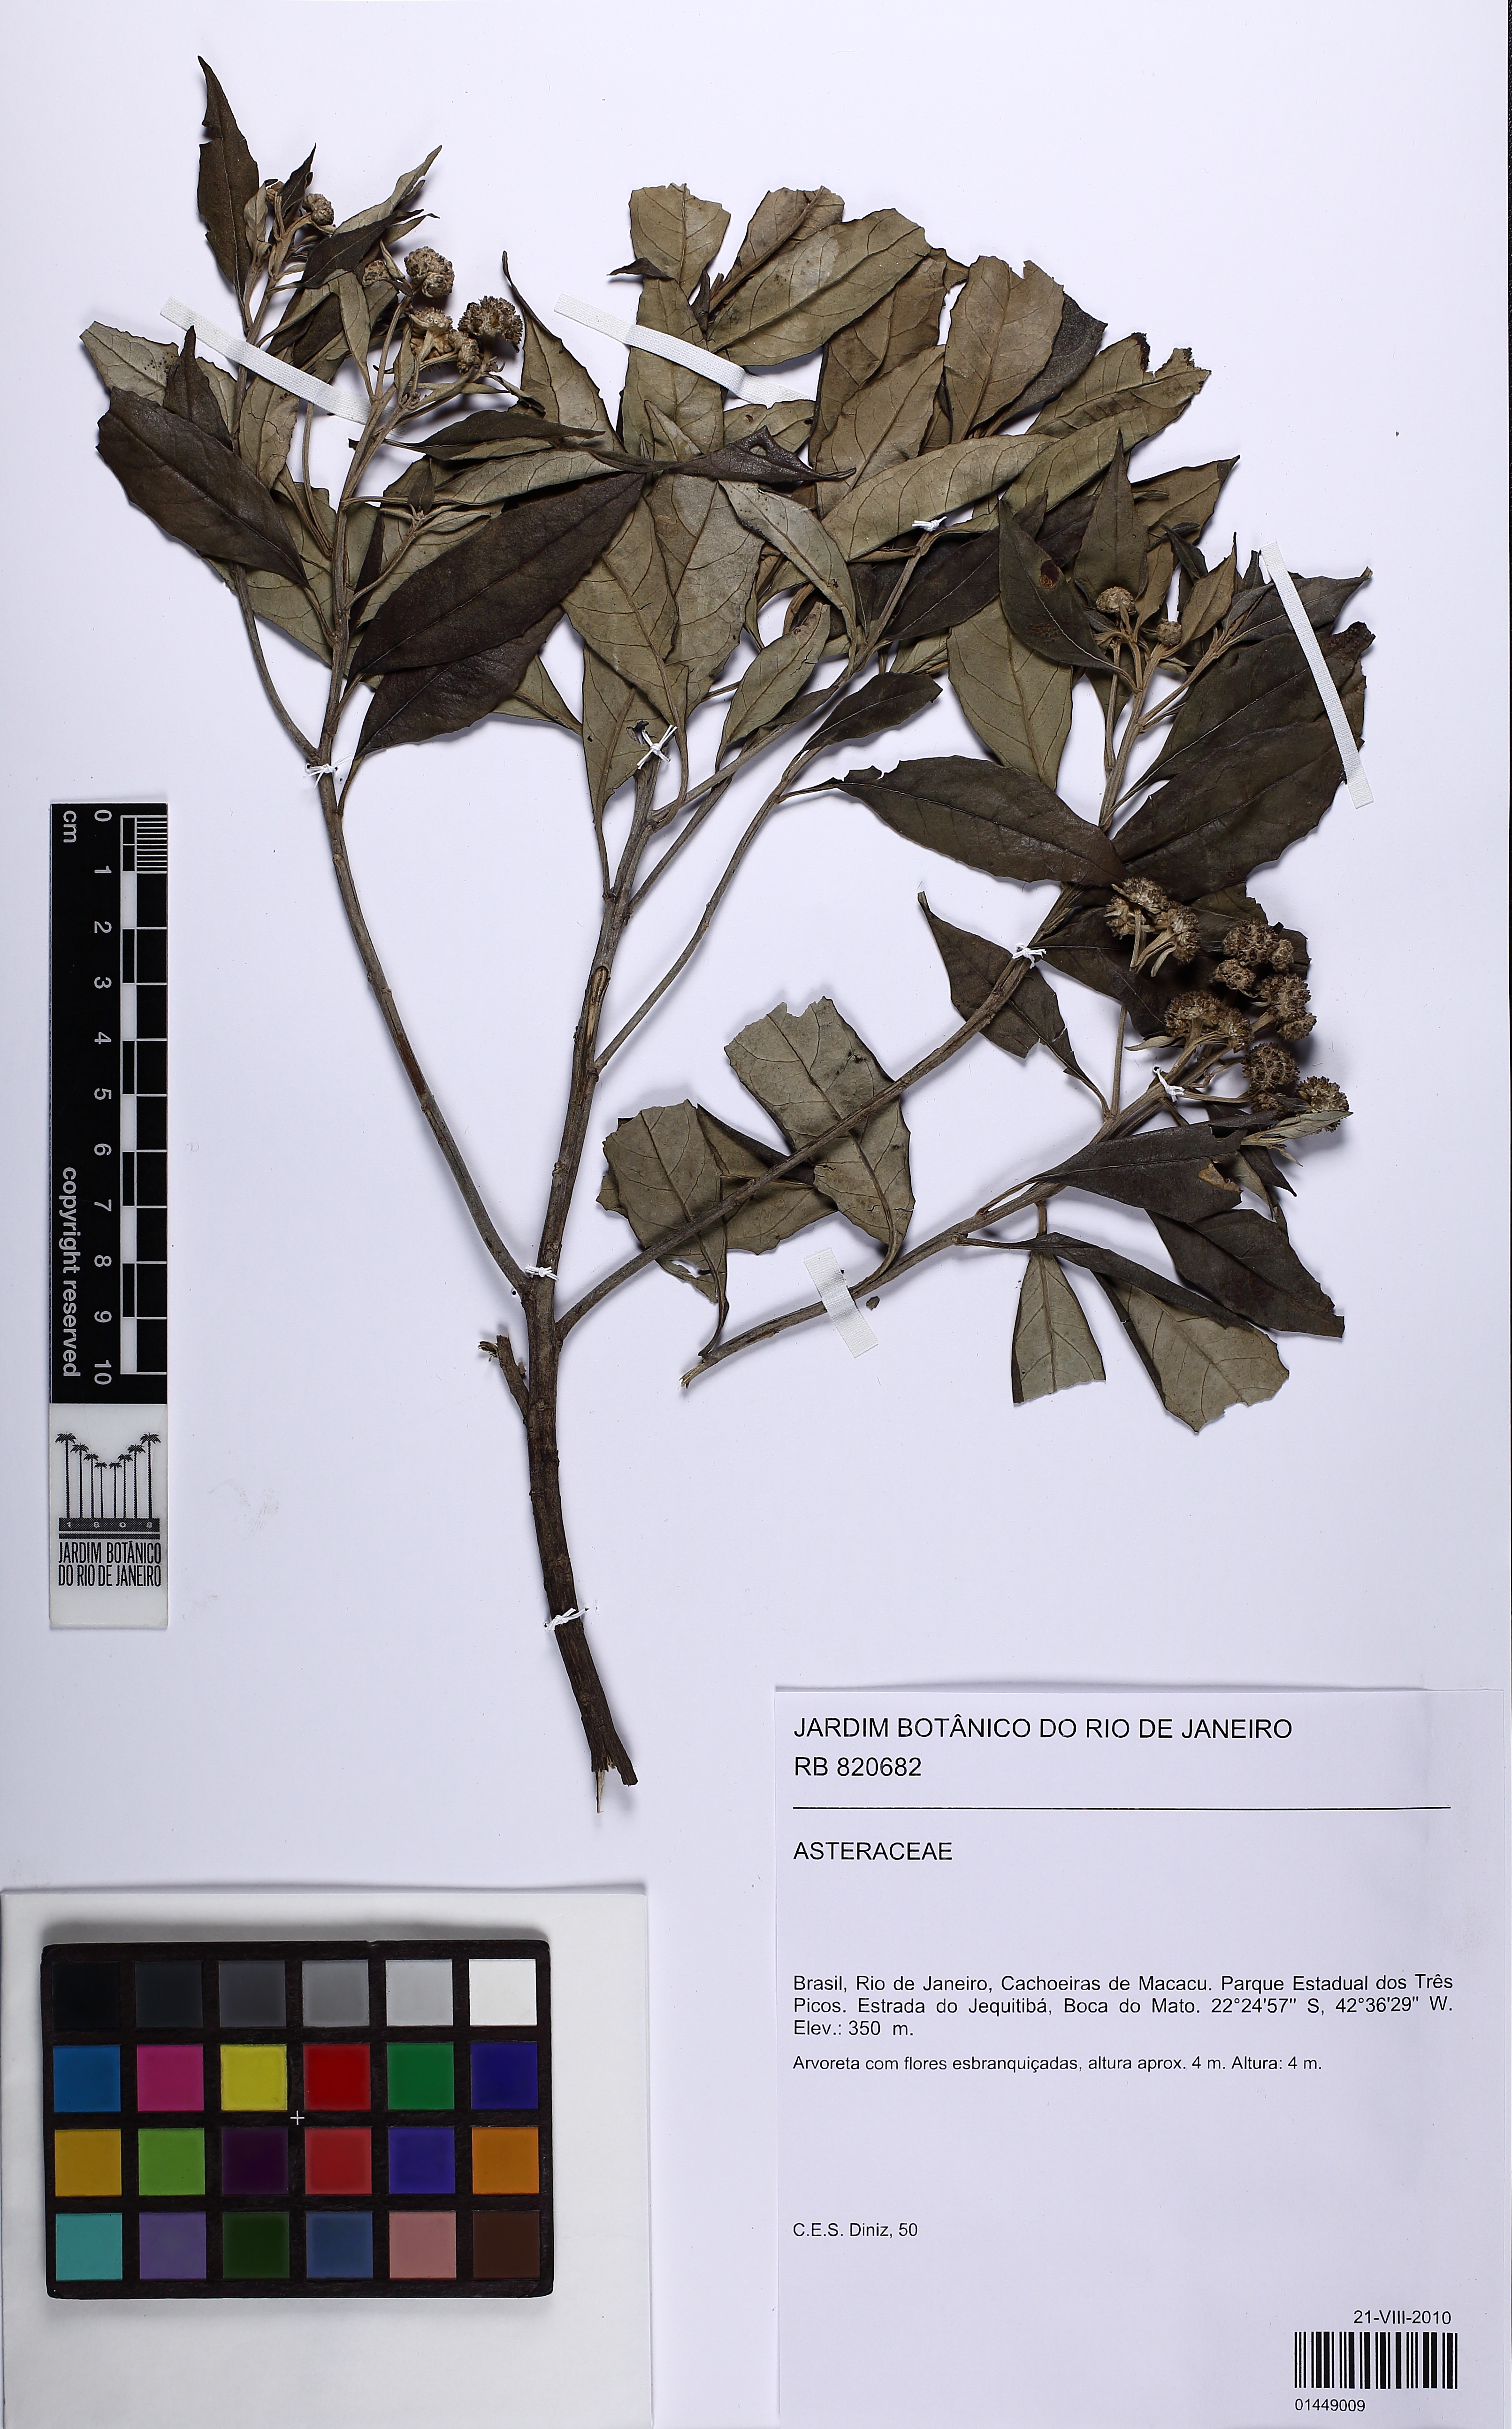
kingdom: Plantae
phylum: Tracheophyta
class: Magnoliopsida
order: Asterales
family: Asteraceae
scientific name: Asteraceae
